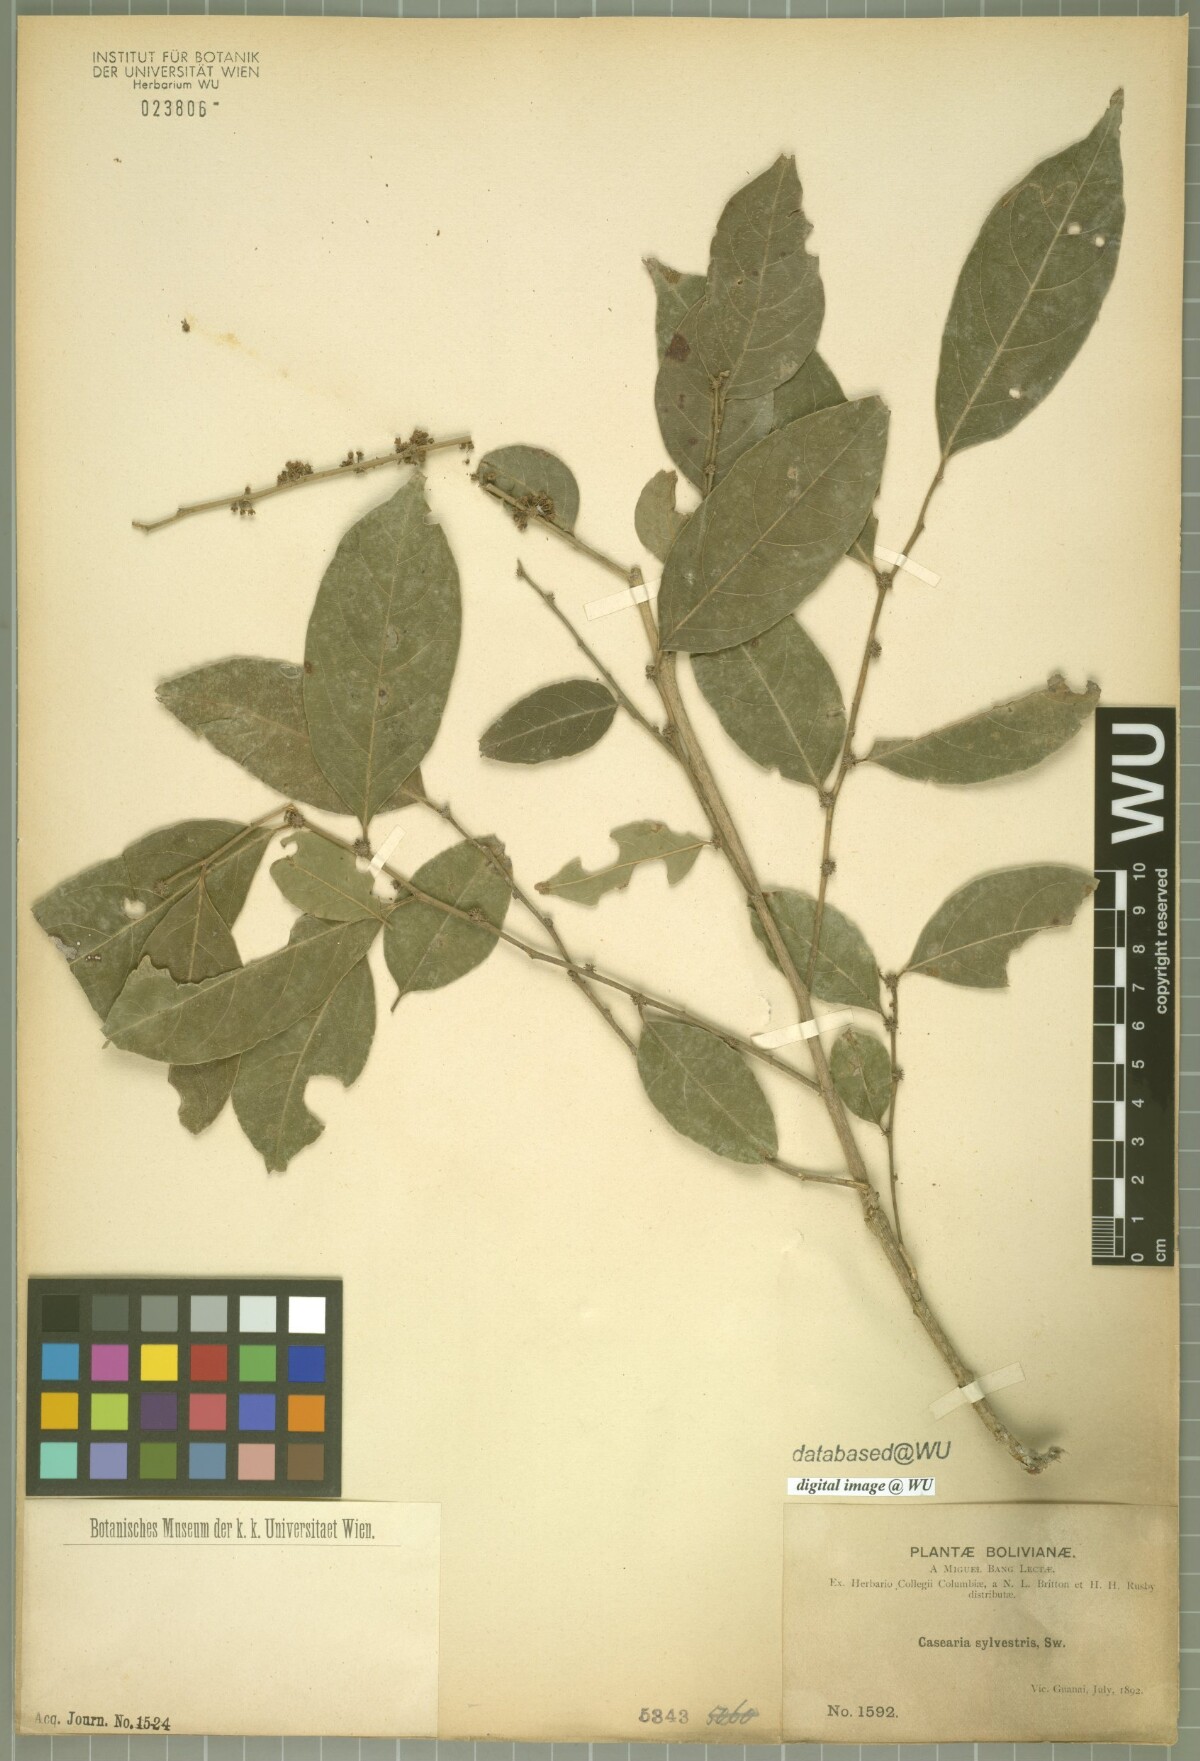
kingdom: Plantae
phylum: Tracheophyta
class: Magnoliopsida
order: Malpighiales
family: Salicaceae
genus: Casearia
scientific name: Casearia sylvestris
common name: Wild sage
